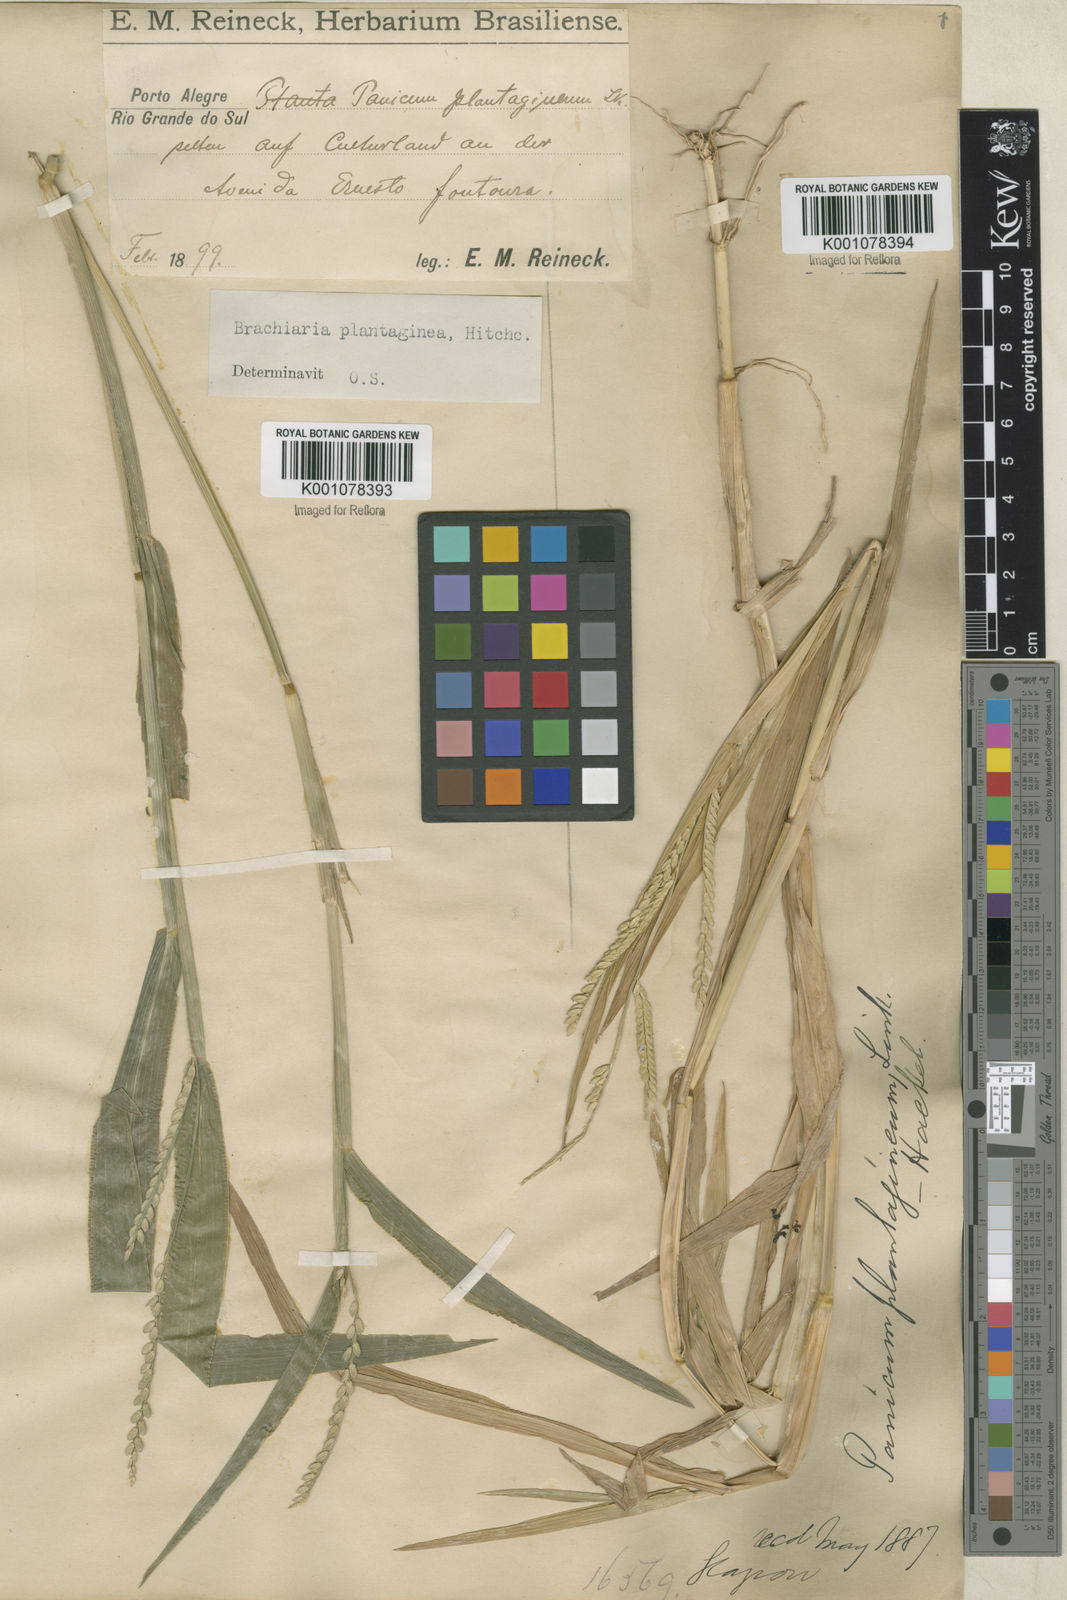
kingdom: Plantae
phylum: Tracheophyta
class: Liliopsida
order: Poales
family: Poaceae
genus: Urochloa
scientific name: Urochloa plantaginea
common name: Plantain signalgrass
